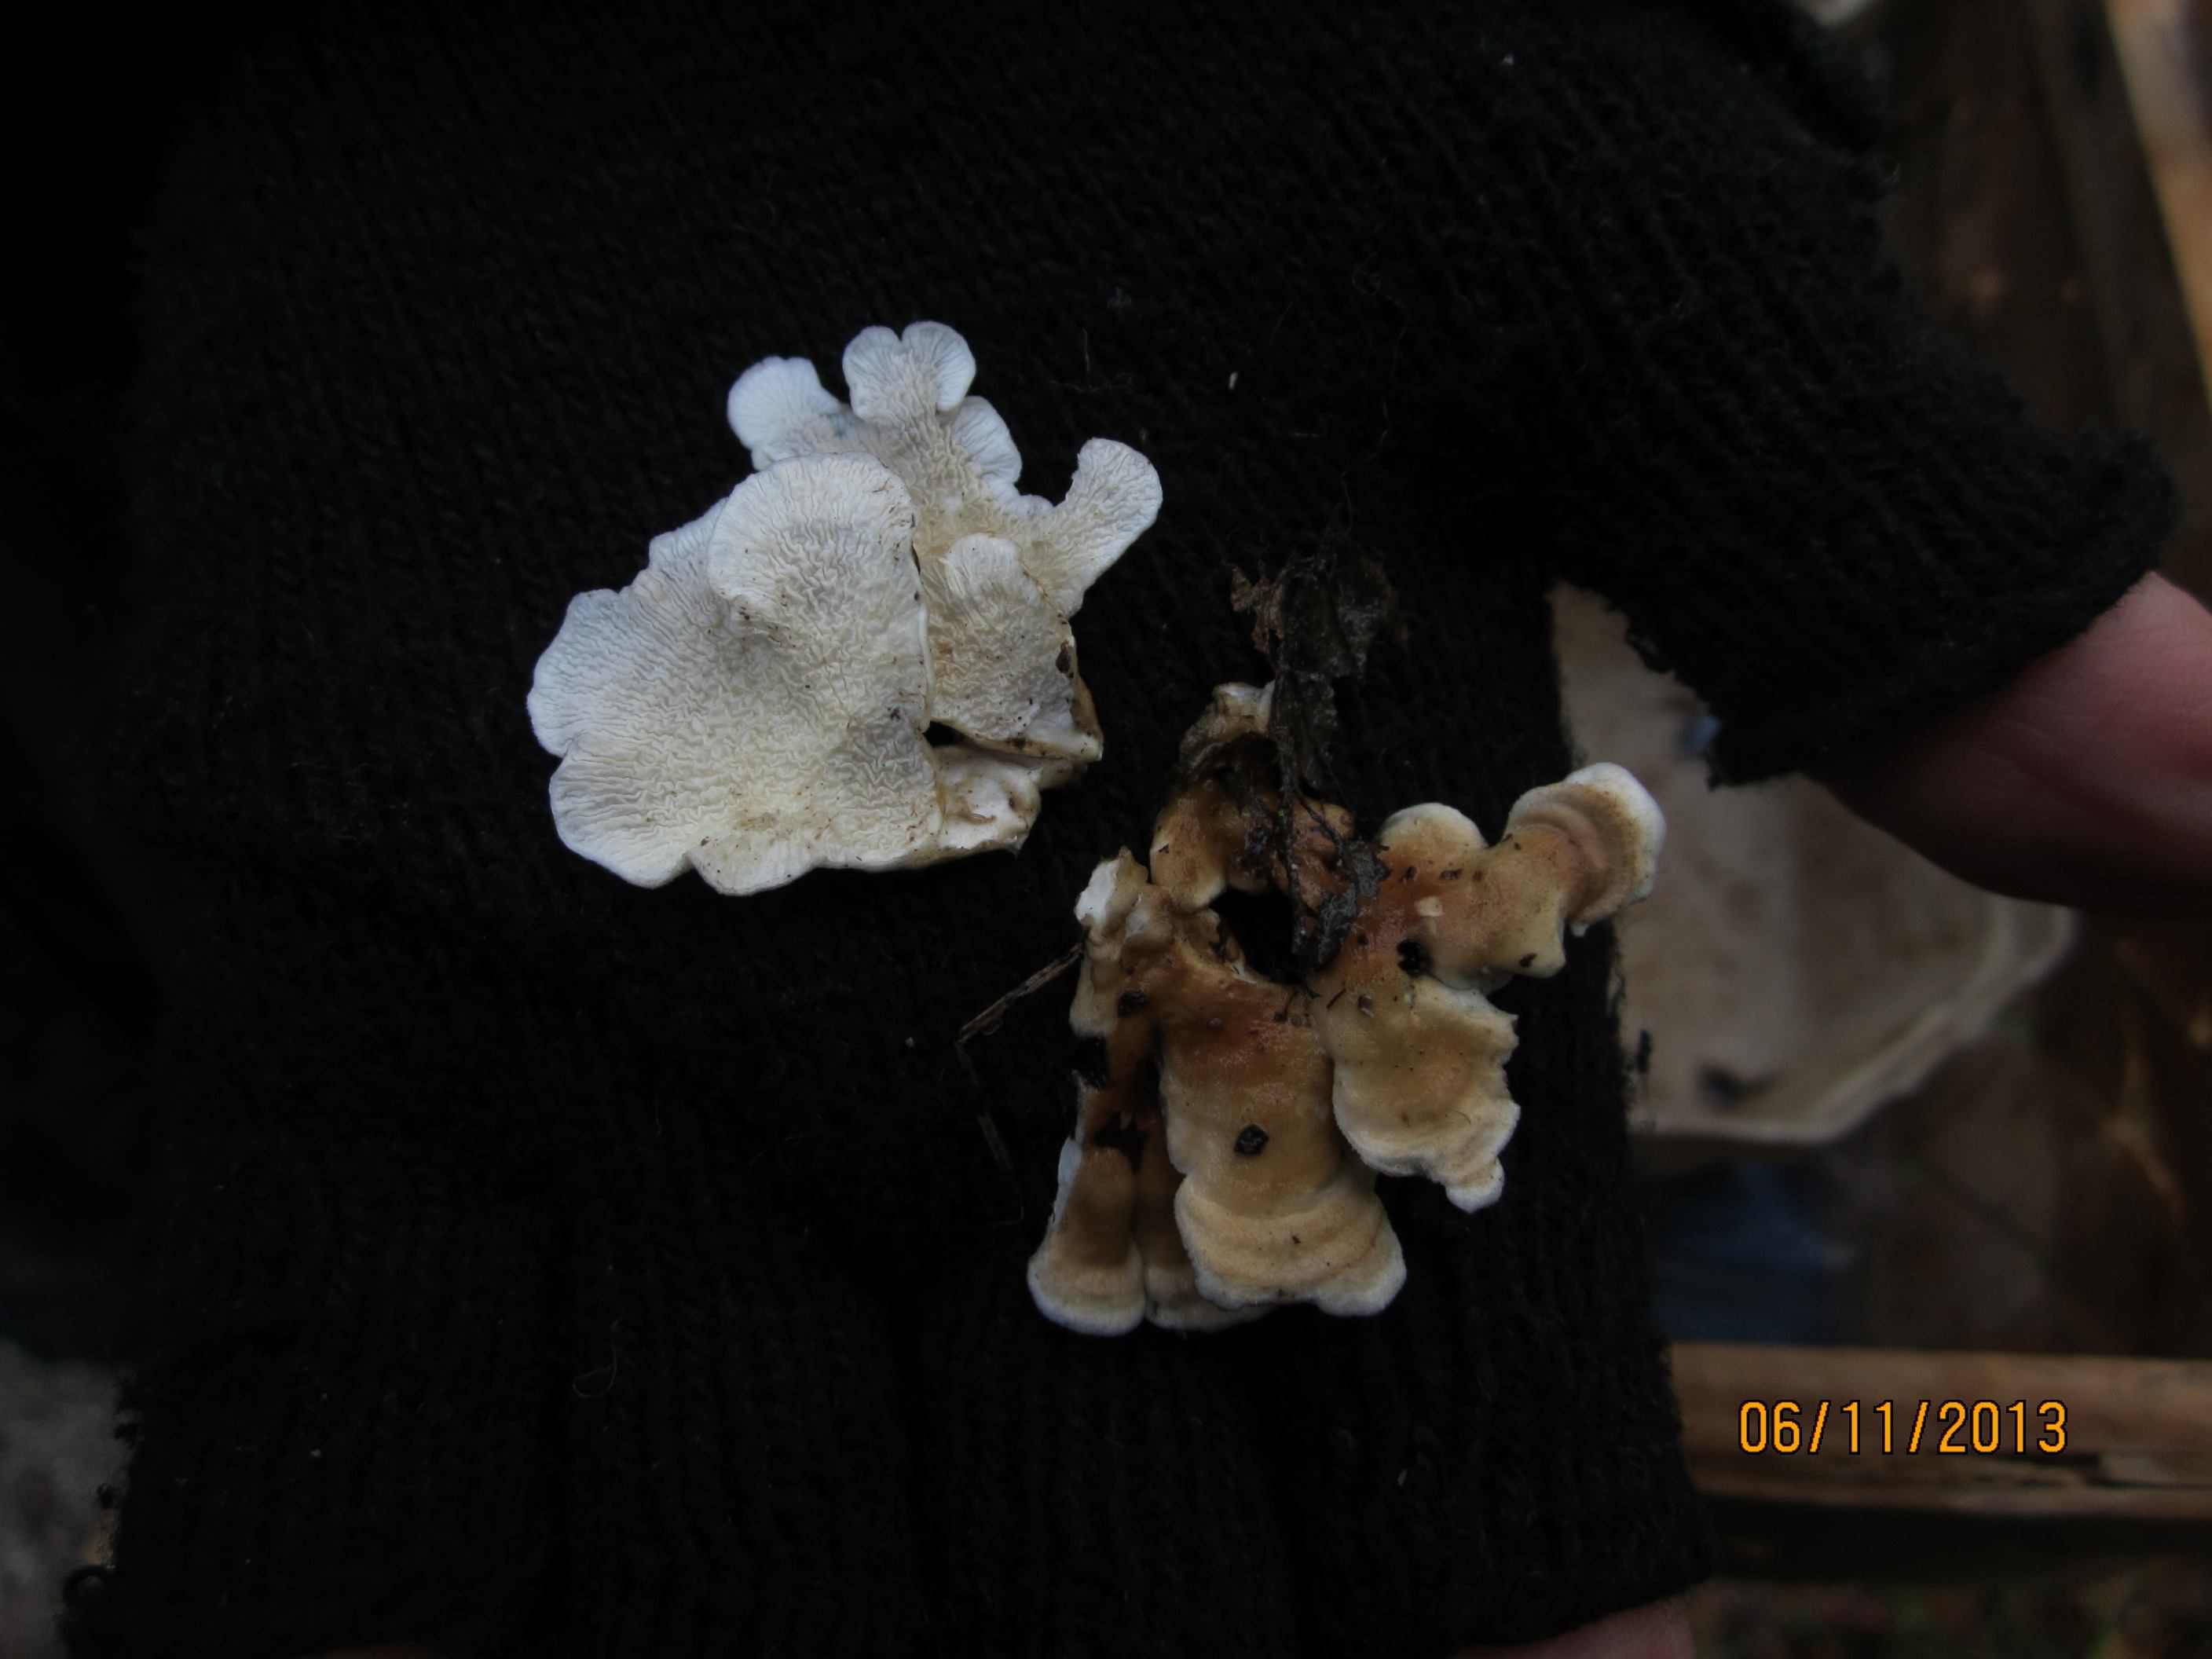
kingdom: Fungi
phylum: Basidiomycota
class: Agaricomycetes
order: Amylocorticiales
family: Amylocorticiaceae
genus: Plicaturopsis
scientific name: Plicaturopsis crispa
